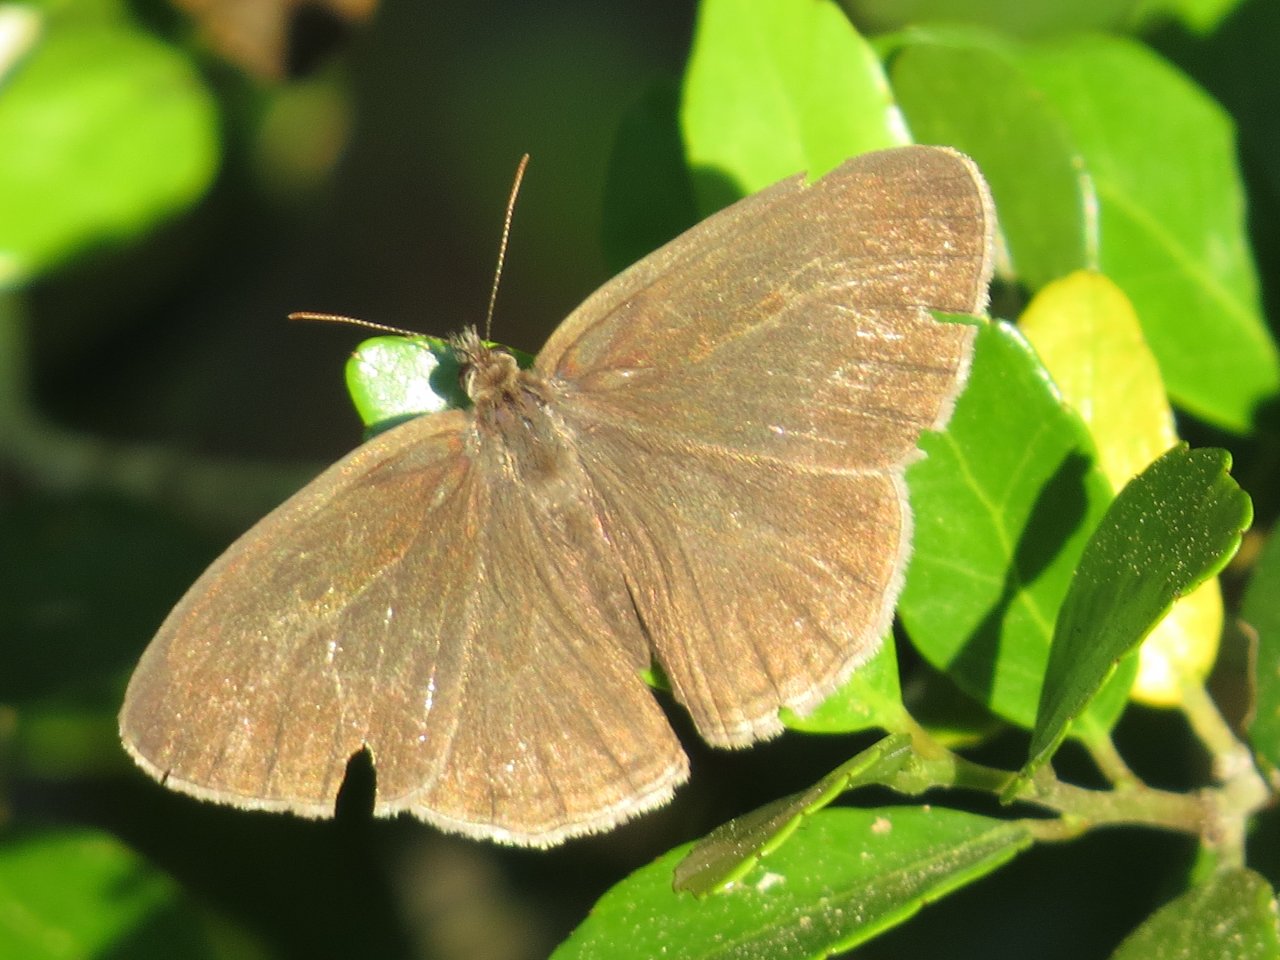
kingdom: Animalia
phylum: Arthropoda
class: Insecta
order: Lepidoptera
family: Nymphalidae
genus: Hermeuptychia
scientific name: Hermeuptychia intricata
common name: Intricate Satyr
